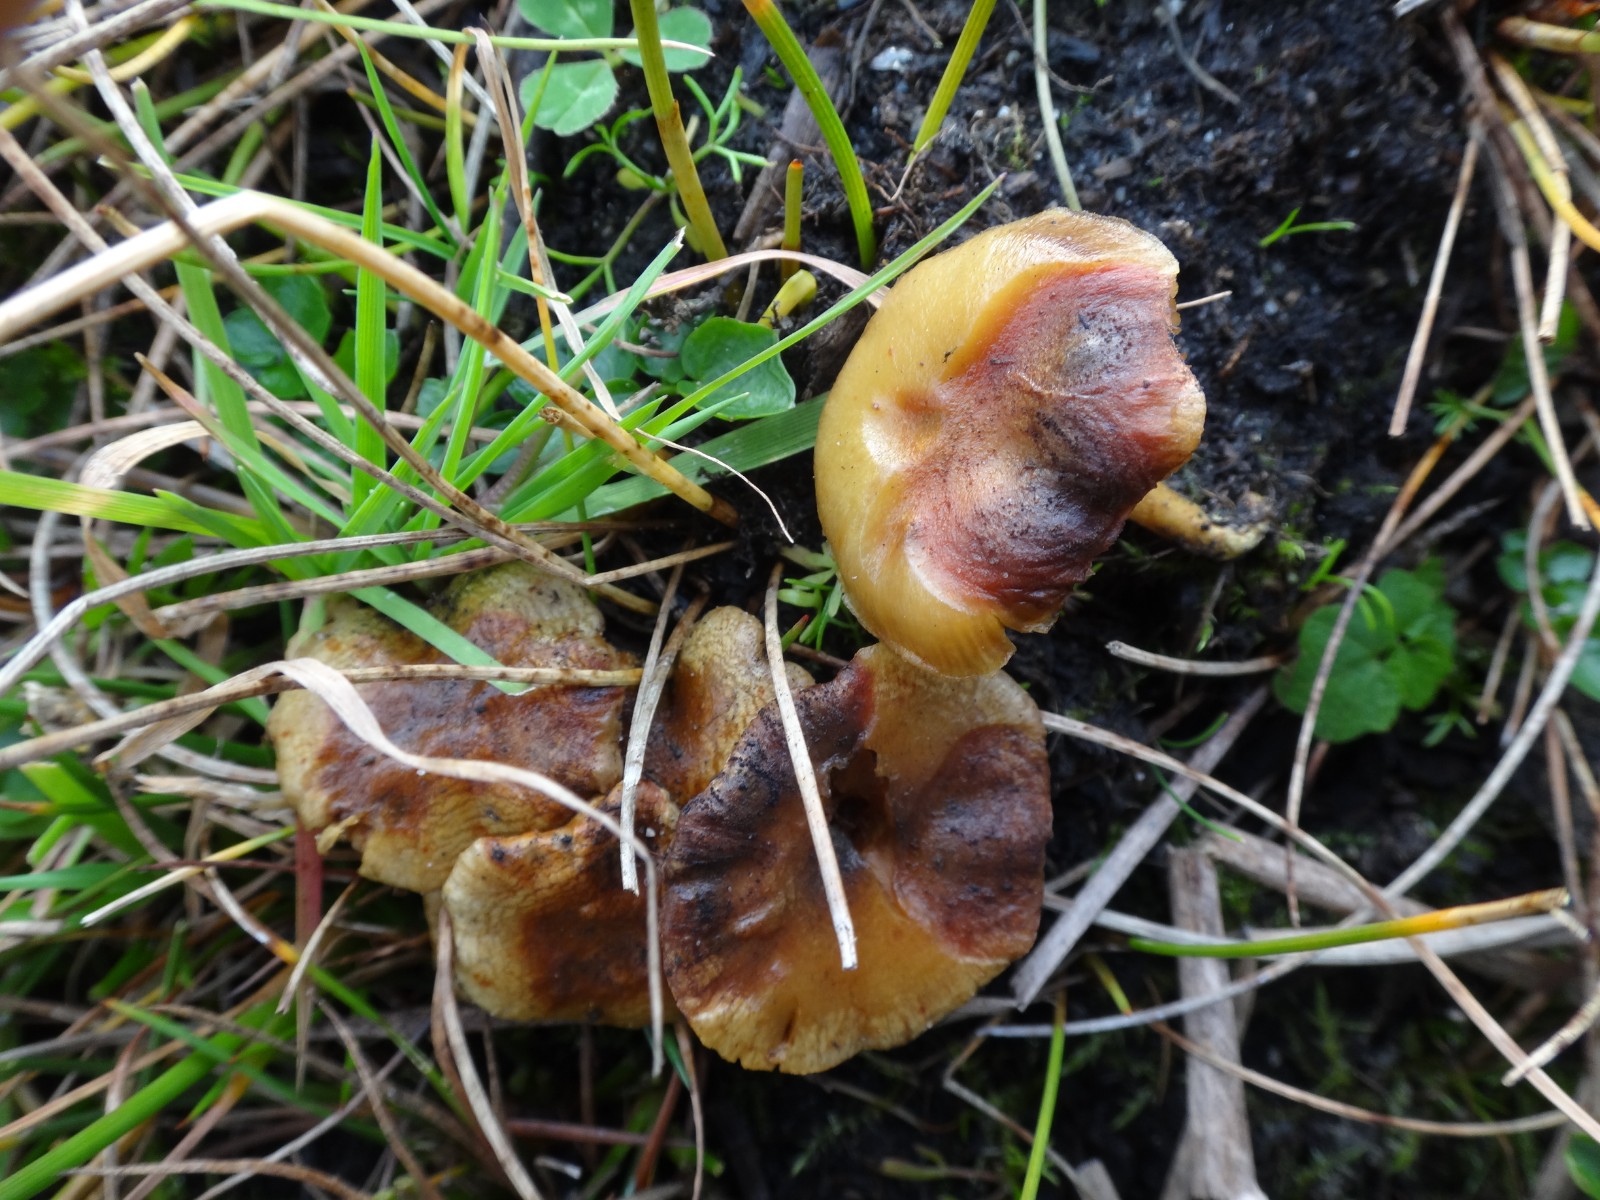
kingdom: Fungi
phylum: Ascomycota
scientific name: Ascomycota
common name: sæksvampe
